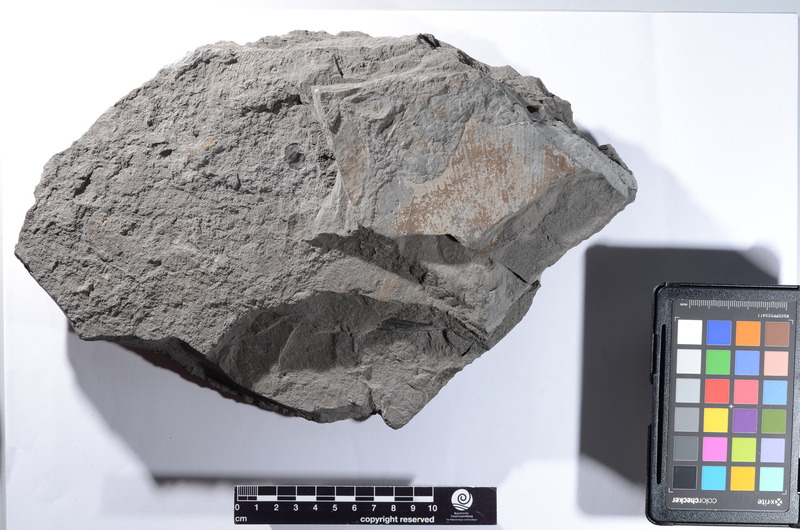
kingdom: Animalia
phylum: Chordata
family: Pachycormidae
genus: Saurostomus
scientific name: Saurostomus esocinus
